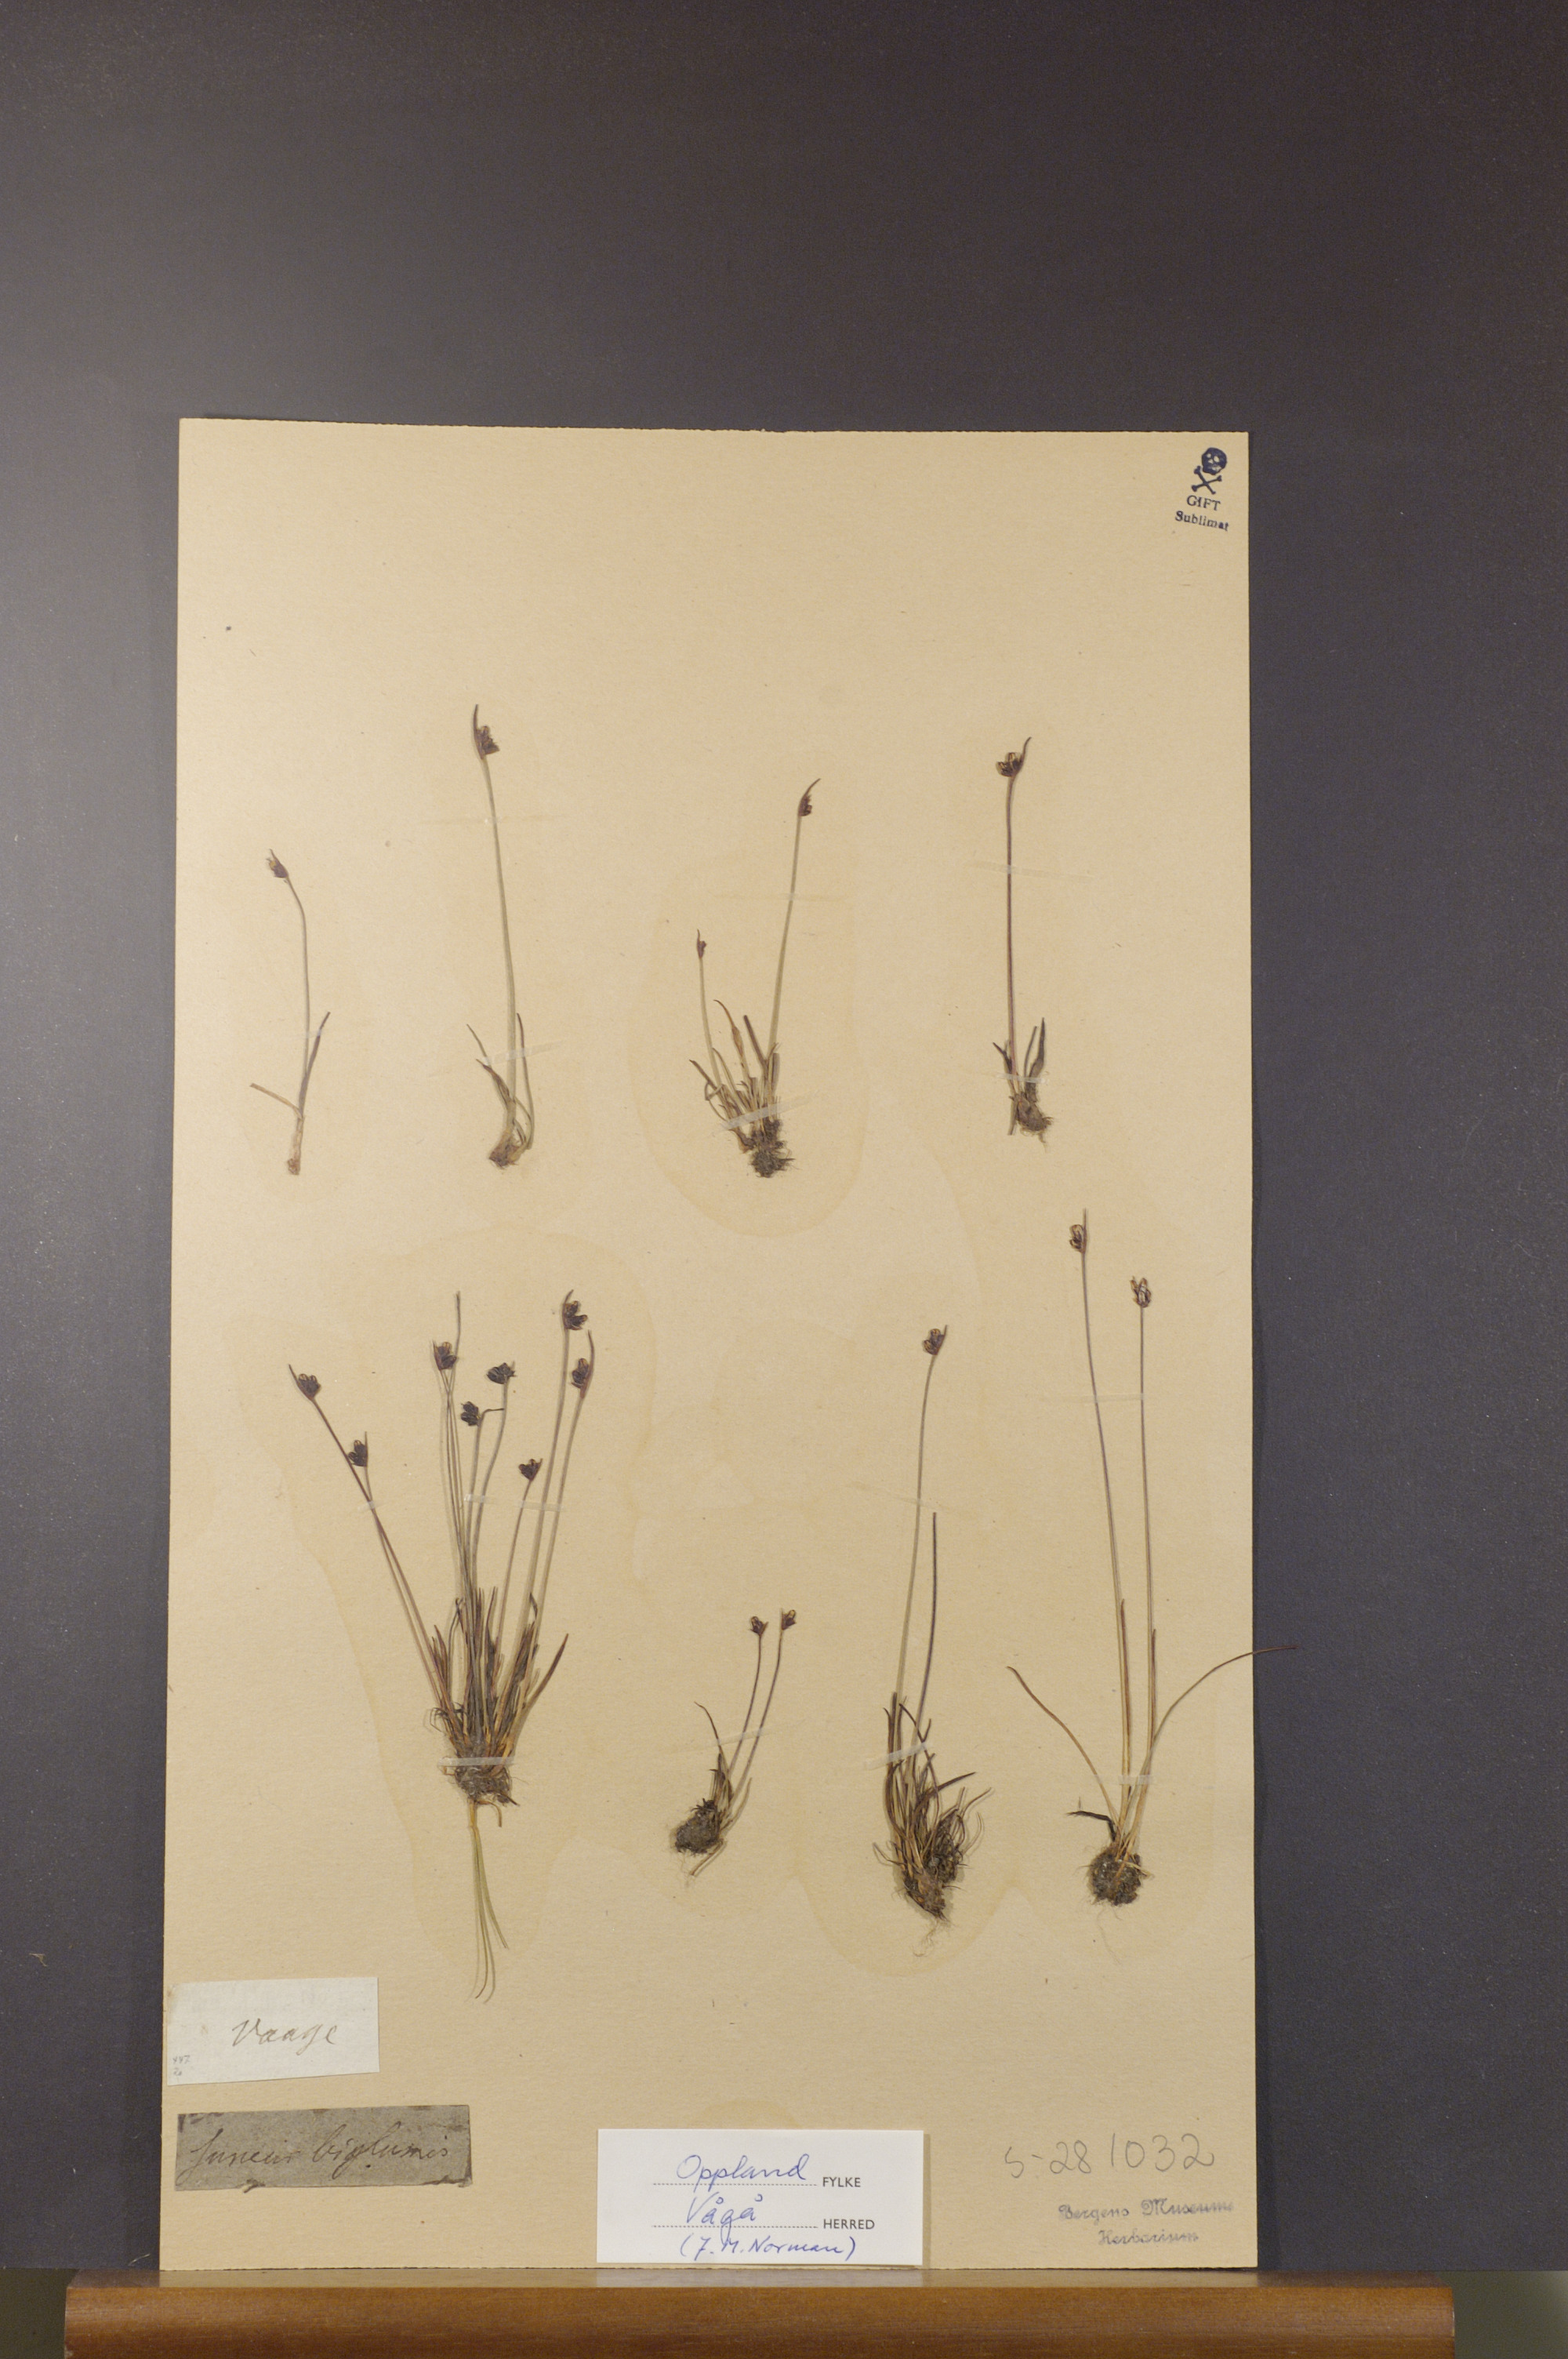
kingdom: Plantae
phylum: Tracheophyta
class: Liliopsida
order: Poales
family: Juncaceae
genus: Juncus
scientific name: Juncus biglumis
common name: Two-flowered rush
